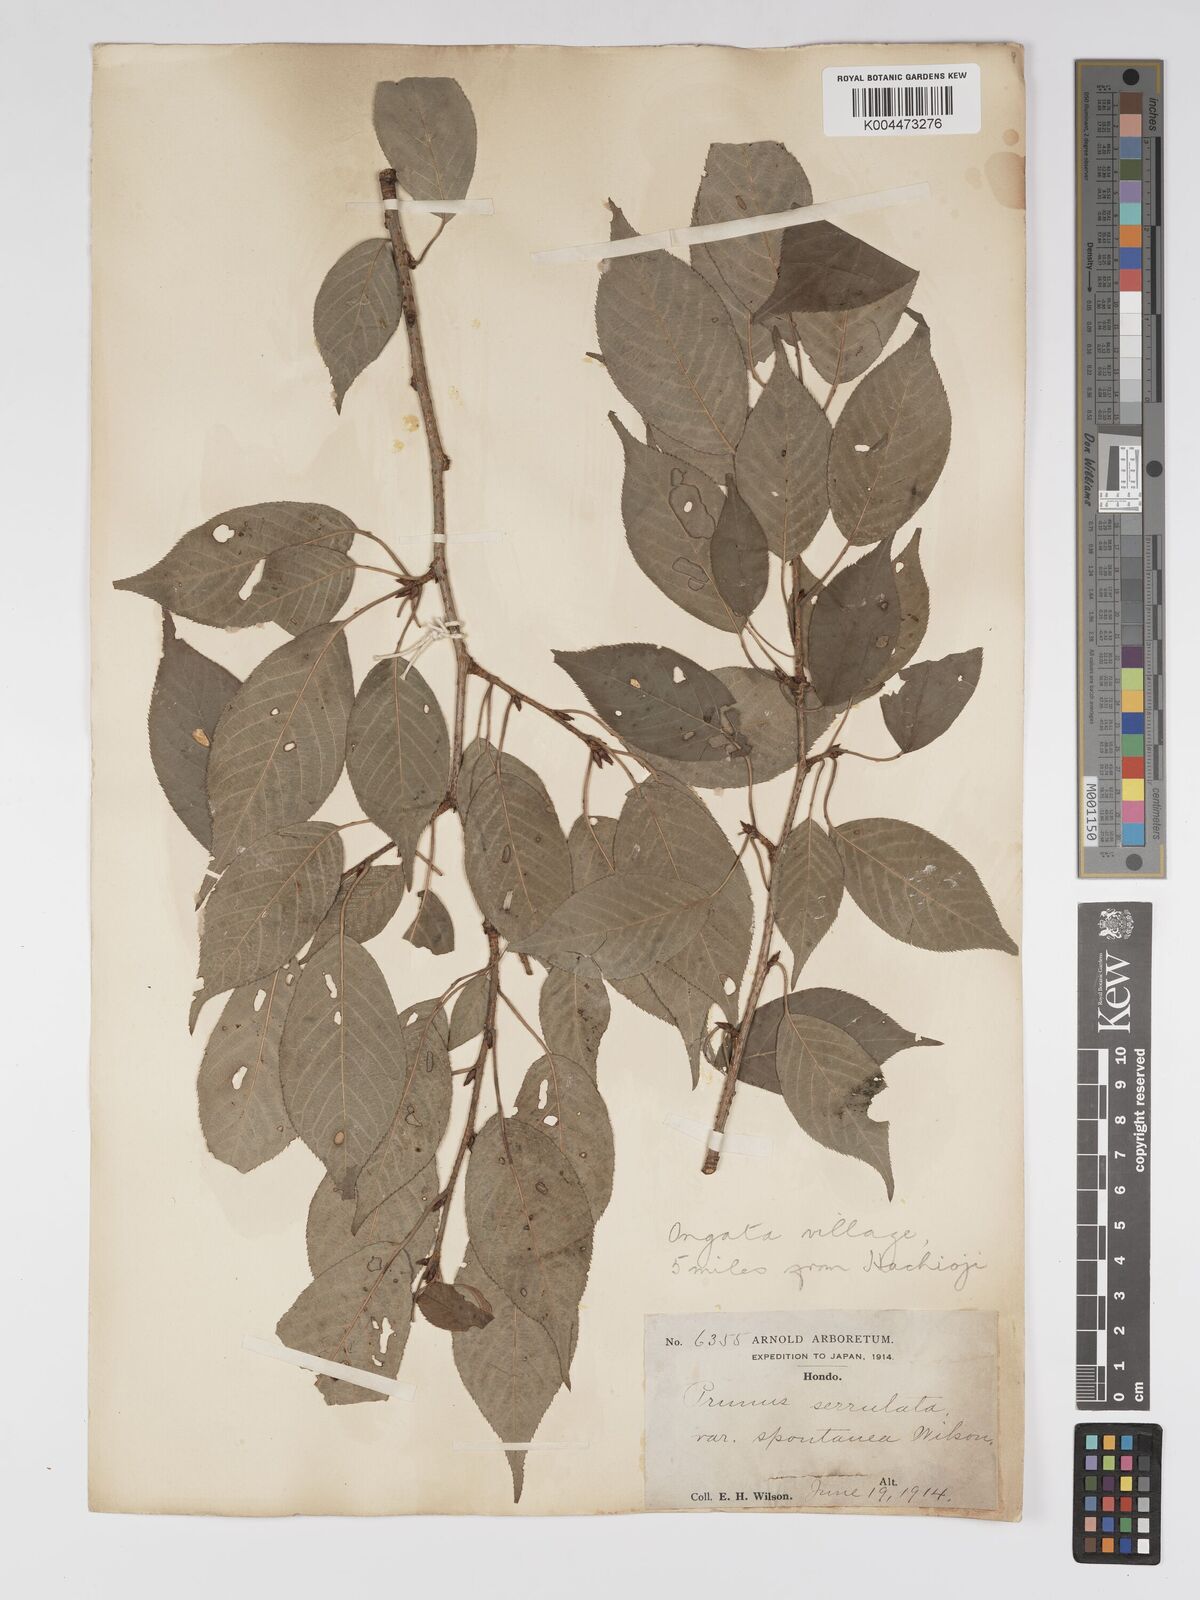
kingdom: Plantae
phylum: Tracheophyta
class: Magnoliopsida
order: Rosales
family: Rosaceae
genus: Prunus
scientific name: Prunus serrulata
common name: Japanese cherry
